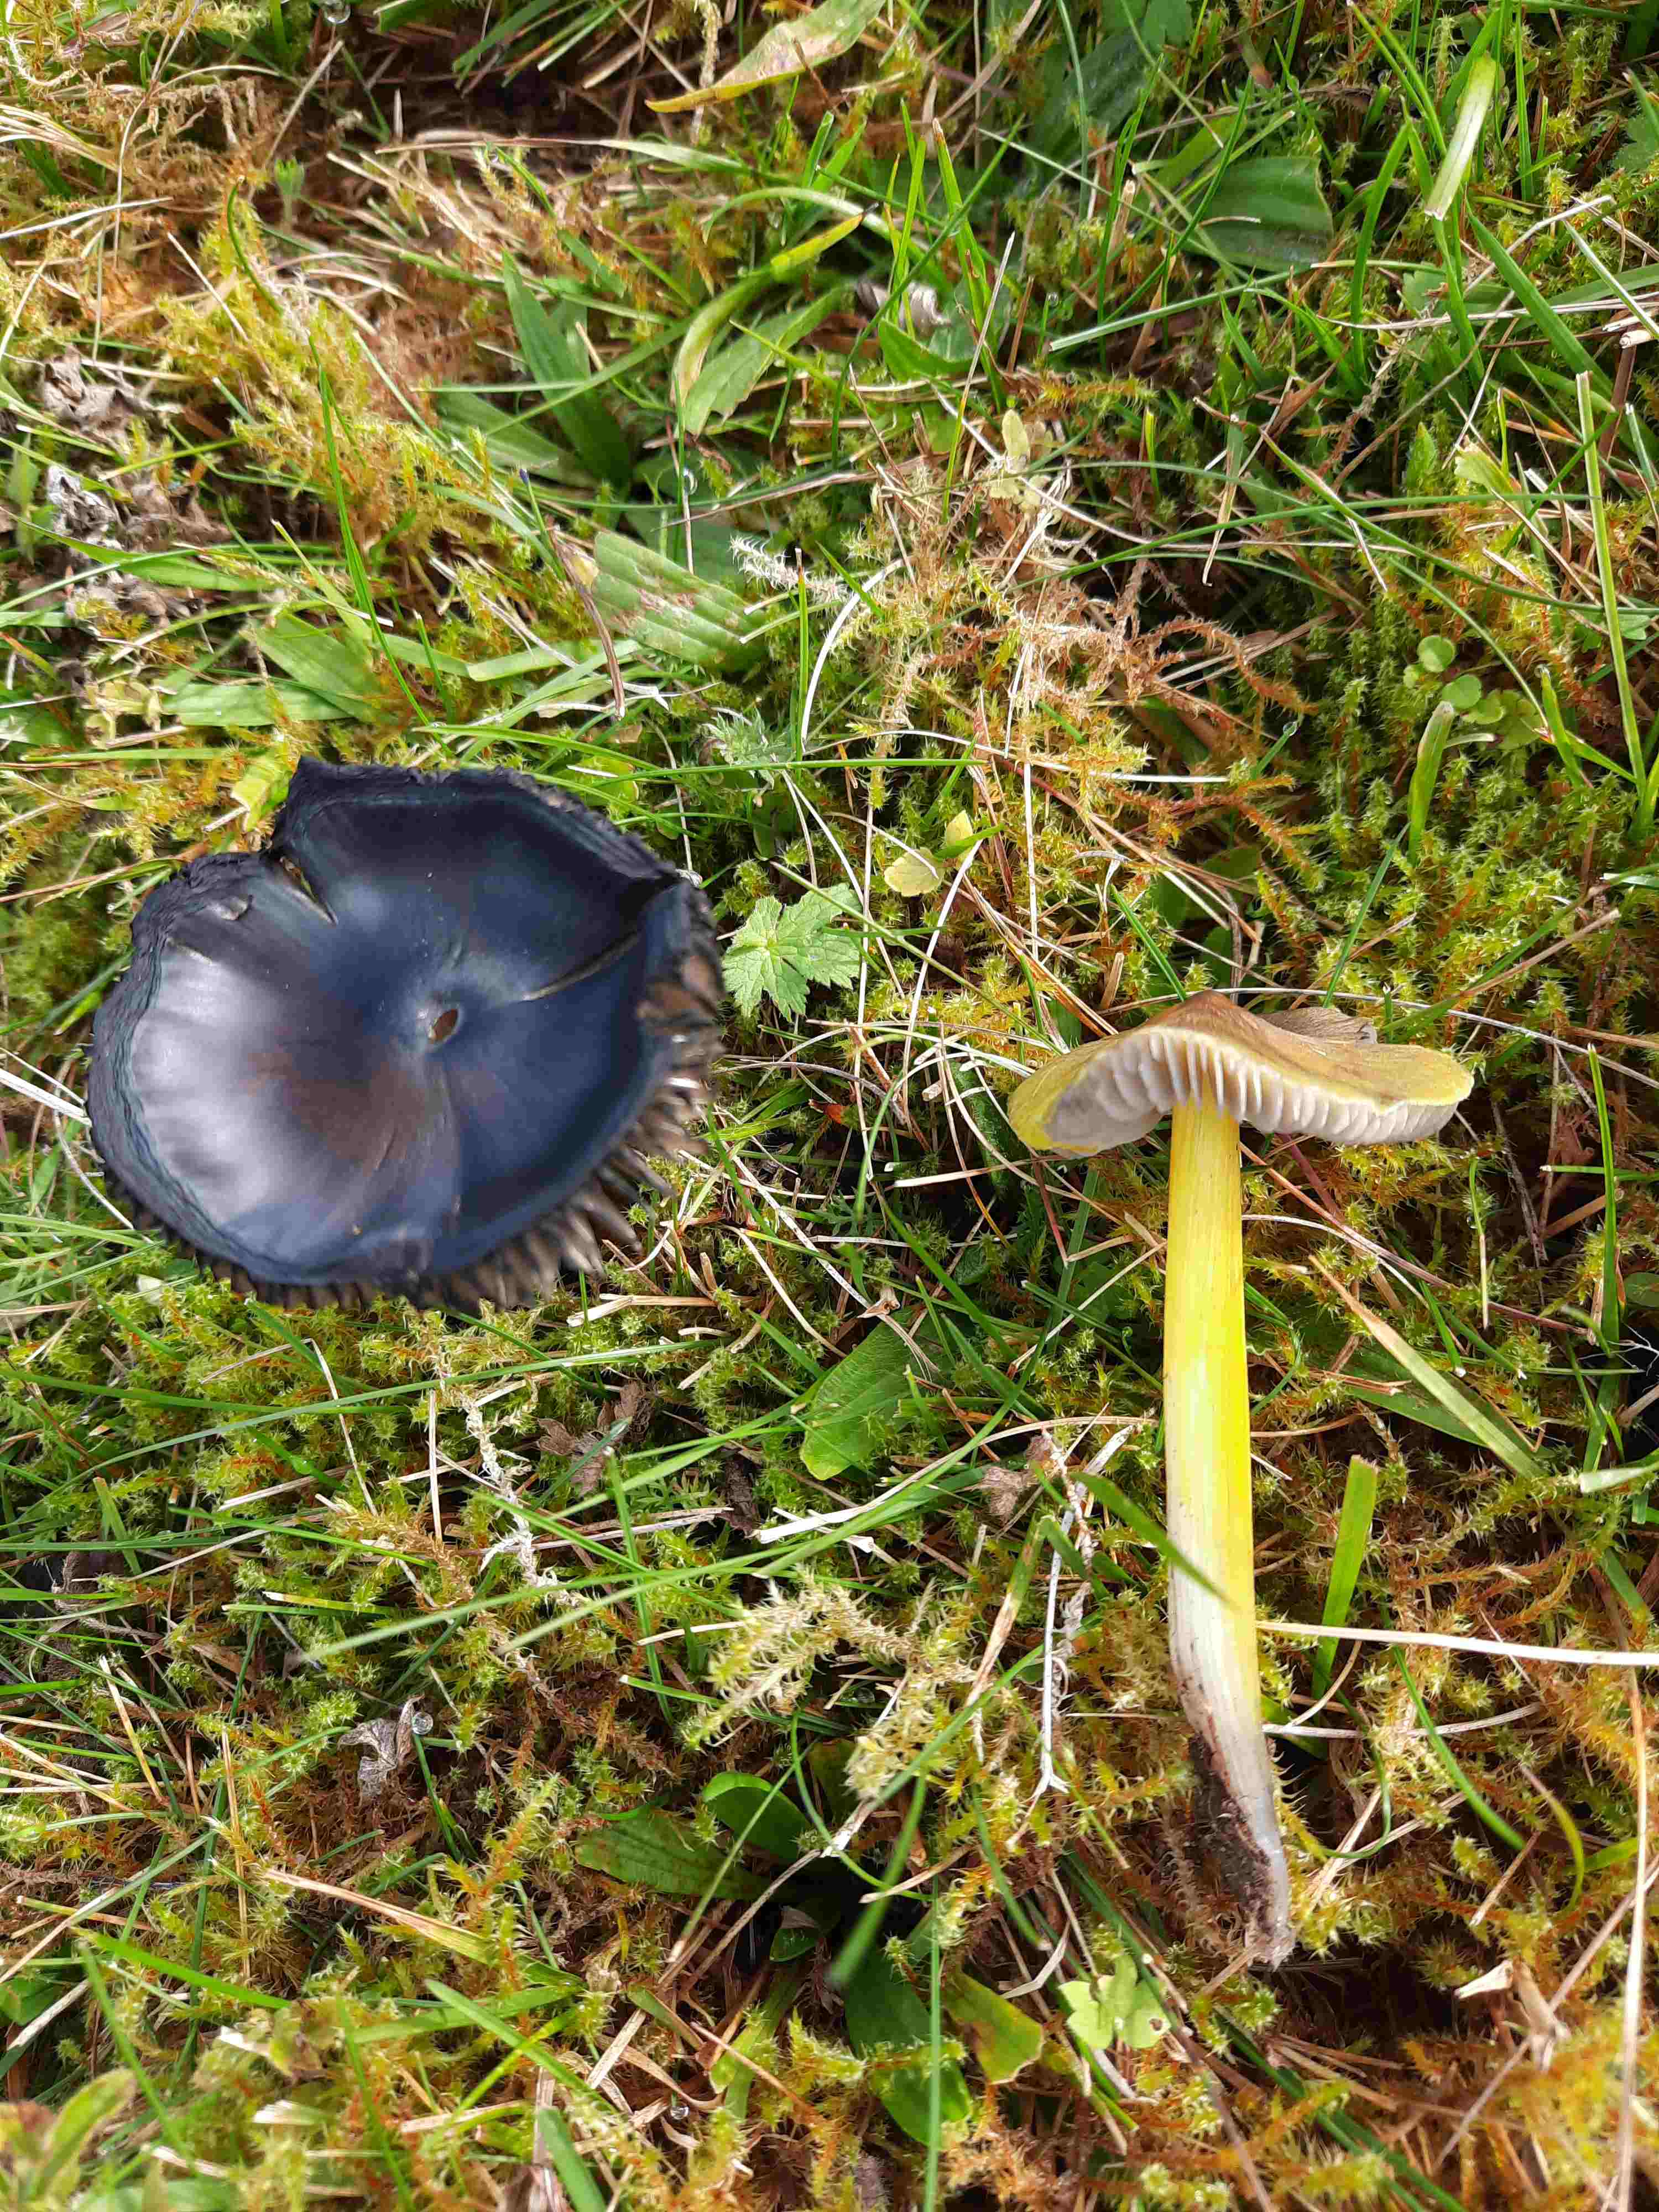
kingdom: Fungi
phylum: Basidiomycota
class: Agaricomycetes
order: Agaricales
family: Hygrophoraceae
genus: Hygrocybe
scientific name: Hygrocybe conica
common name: kegle-vokshat
